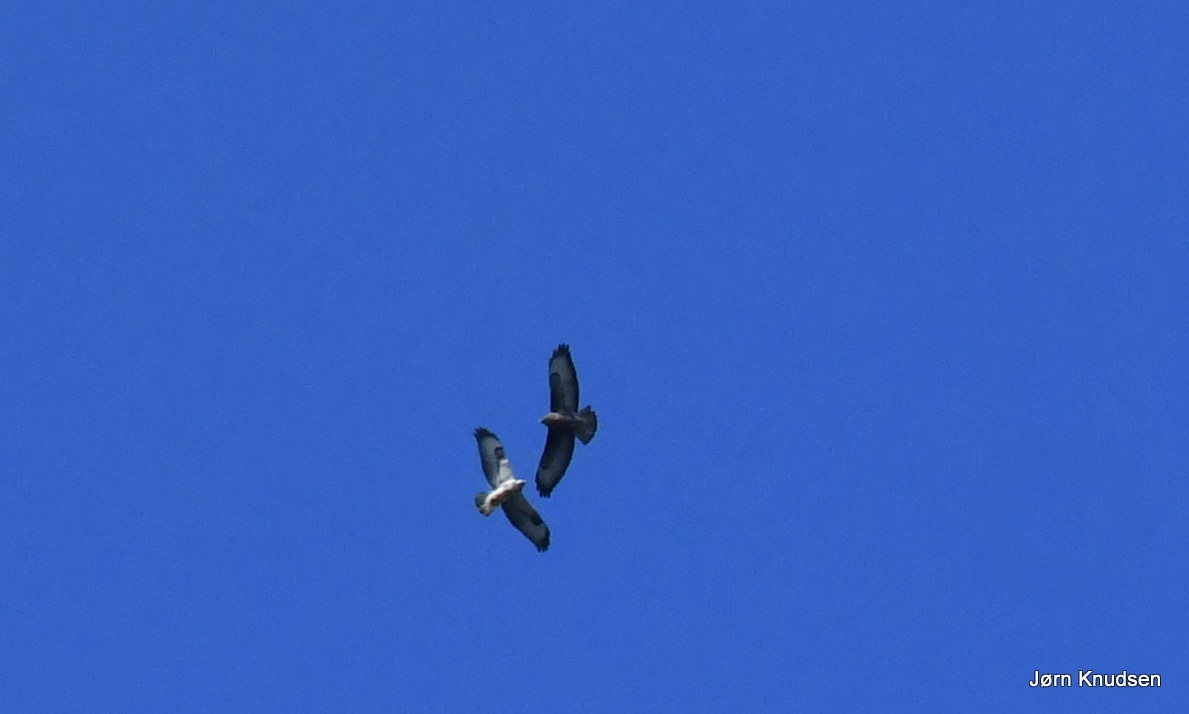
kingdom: Animalia
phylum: Chordata
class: Aves
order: Accipitriformes
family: Accipitridae
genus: Buteo
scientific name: Buteo buteo
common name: Musvåge
